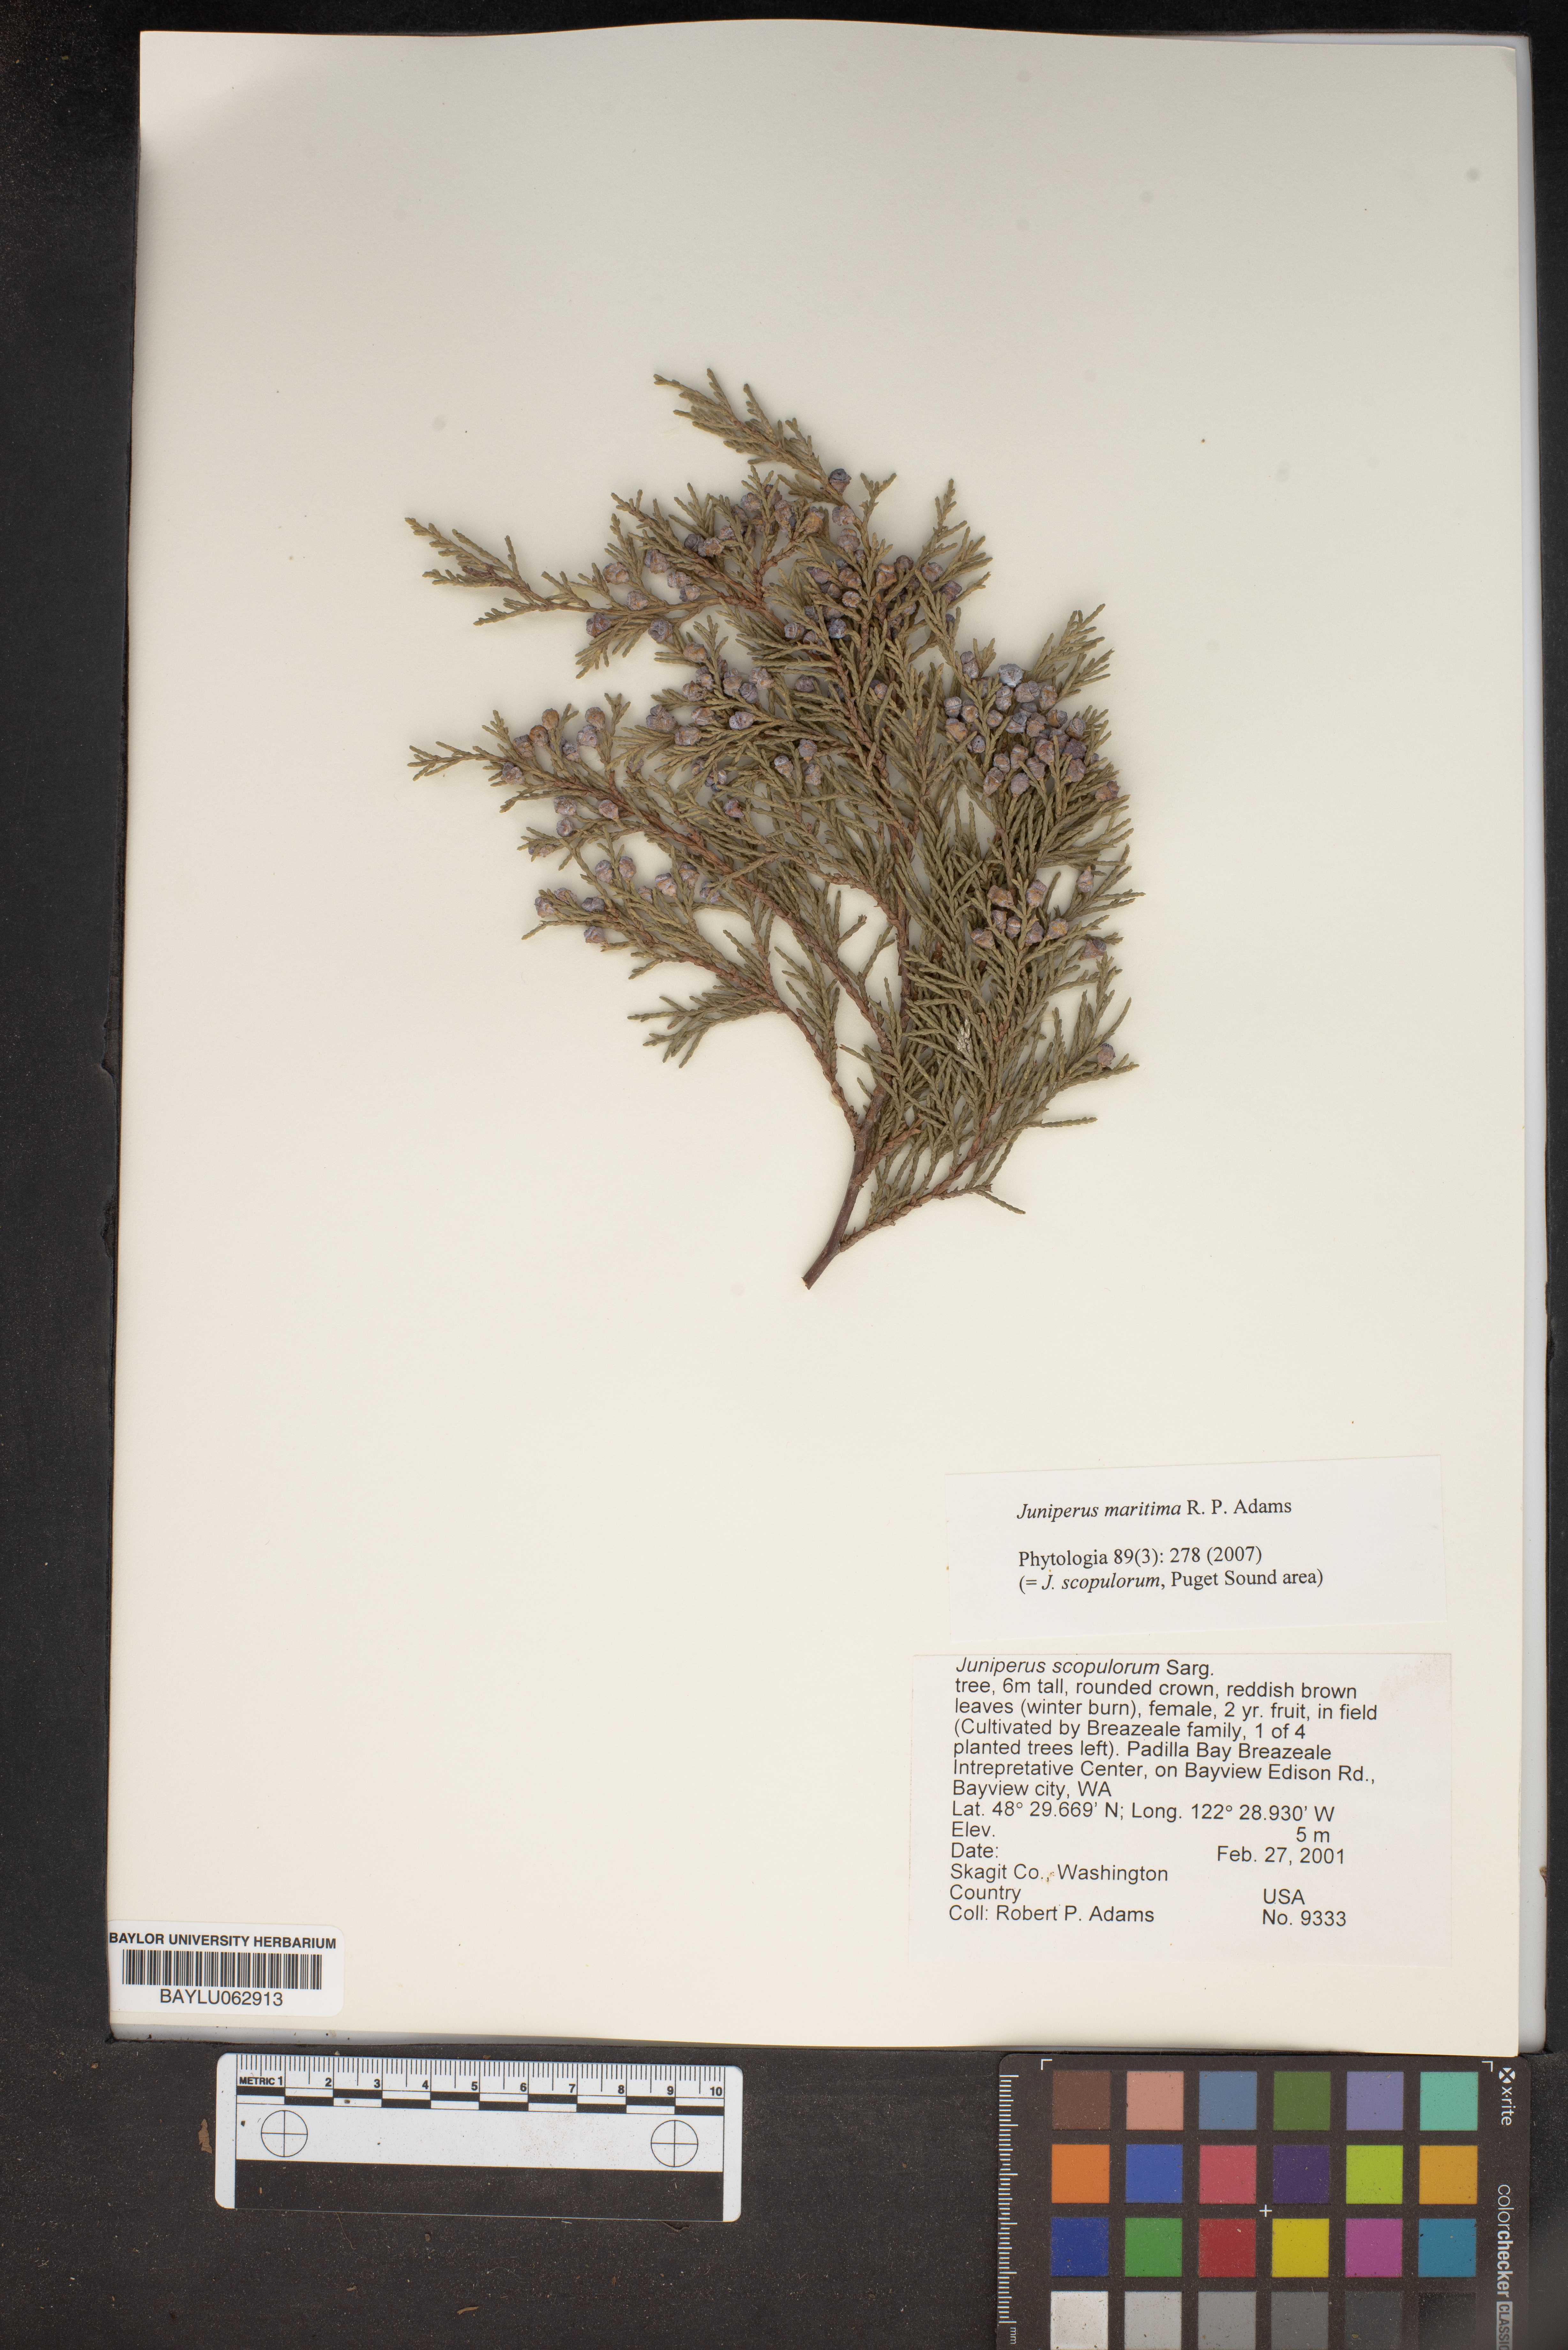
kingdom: Plantae
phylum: Tracheophyta
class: Pinopsida
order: Pinales
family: Cupressaceae
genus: Juniperus
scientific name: Juniperus scopulorum
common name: Rocky mountain juniper
